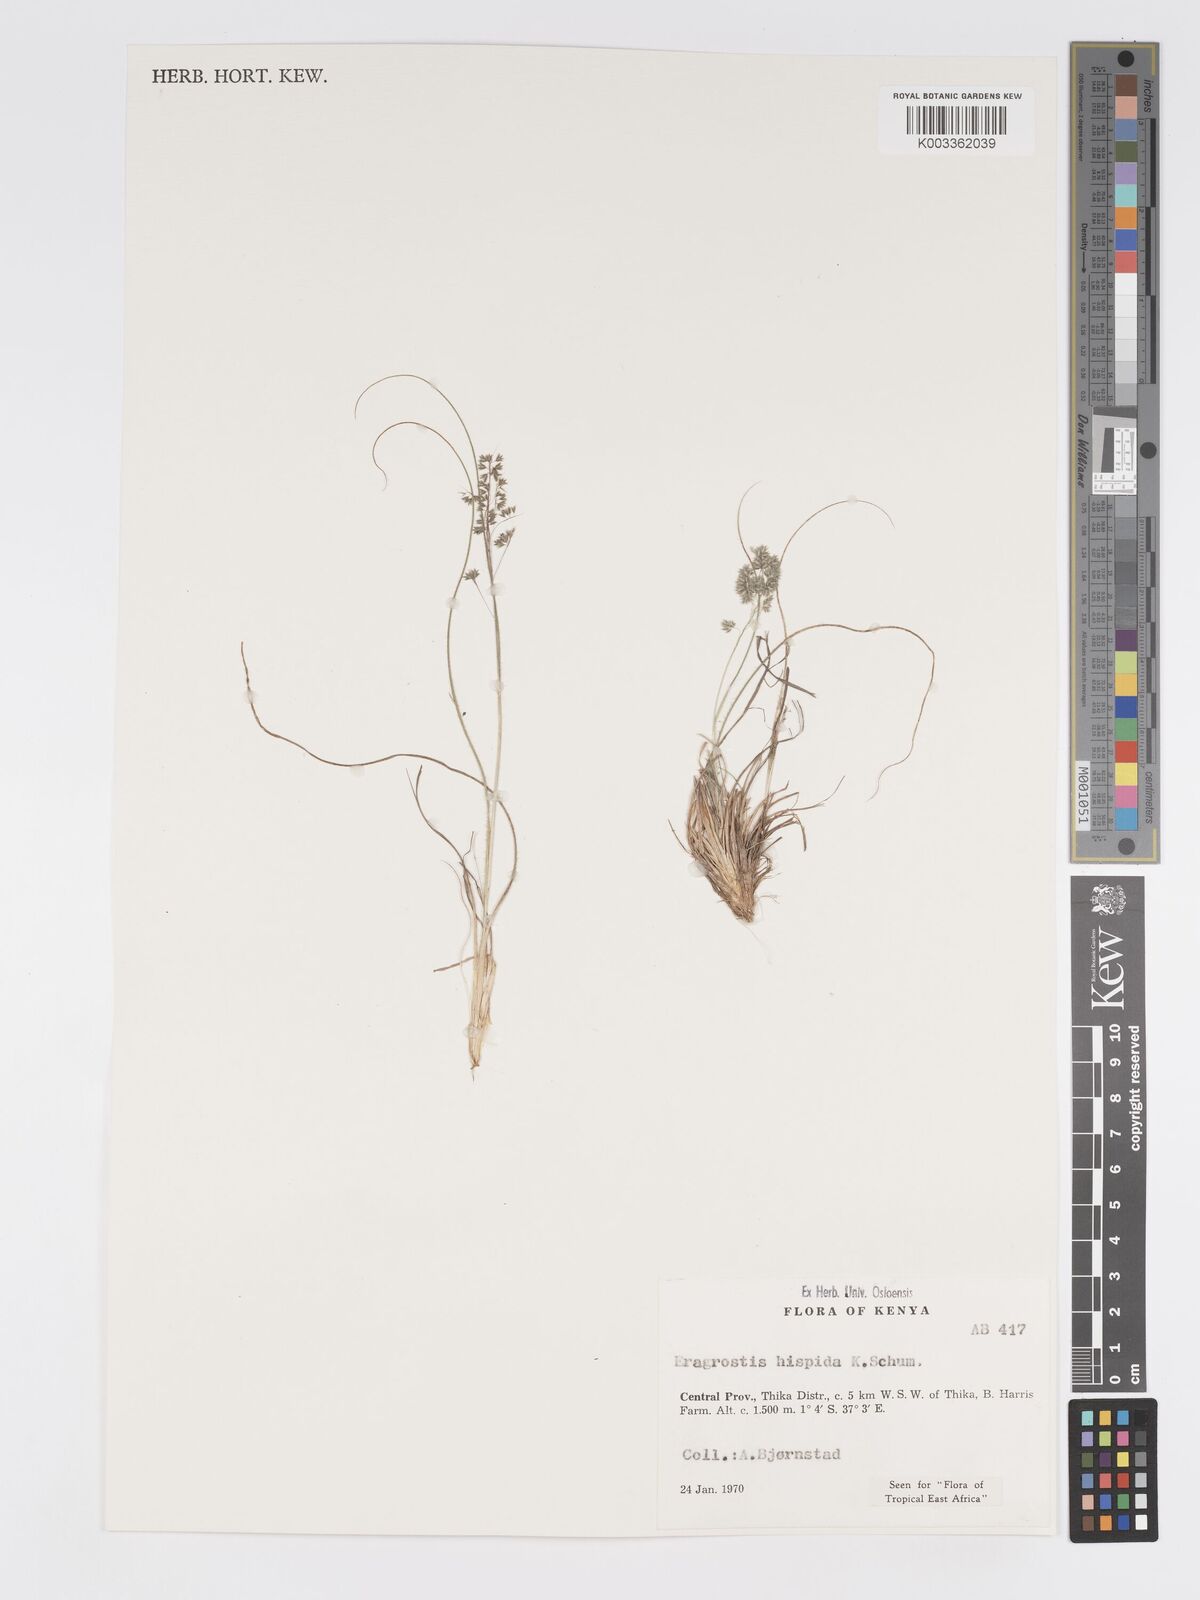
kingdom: Plantae
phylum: Tracheophyta
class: Liliopsida
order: Poales
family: Poaceae
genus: Eragrostis
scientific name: Eragrostis hispida
